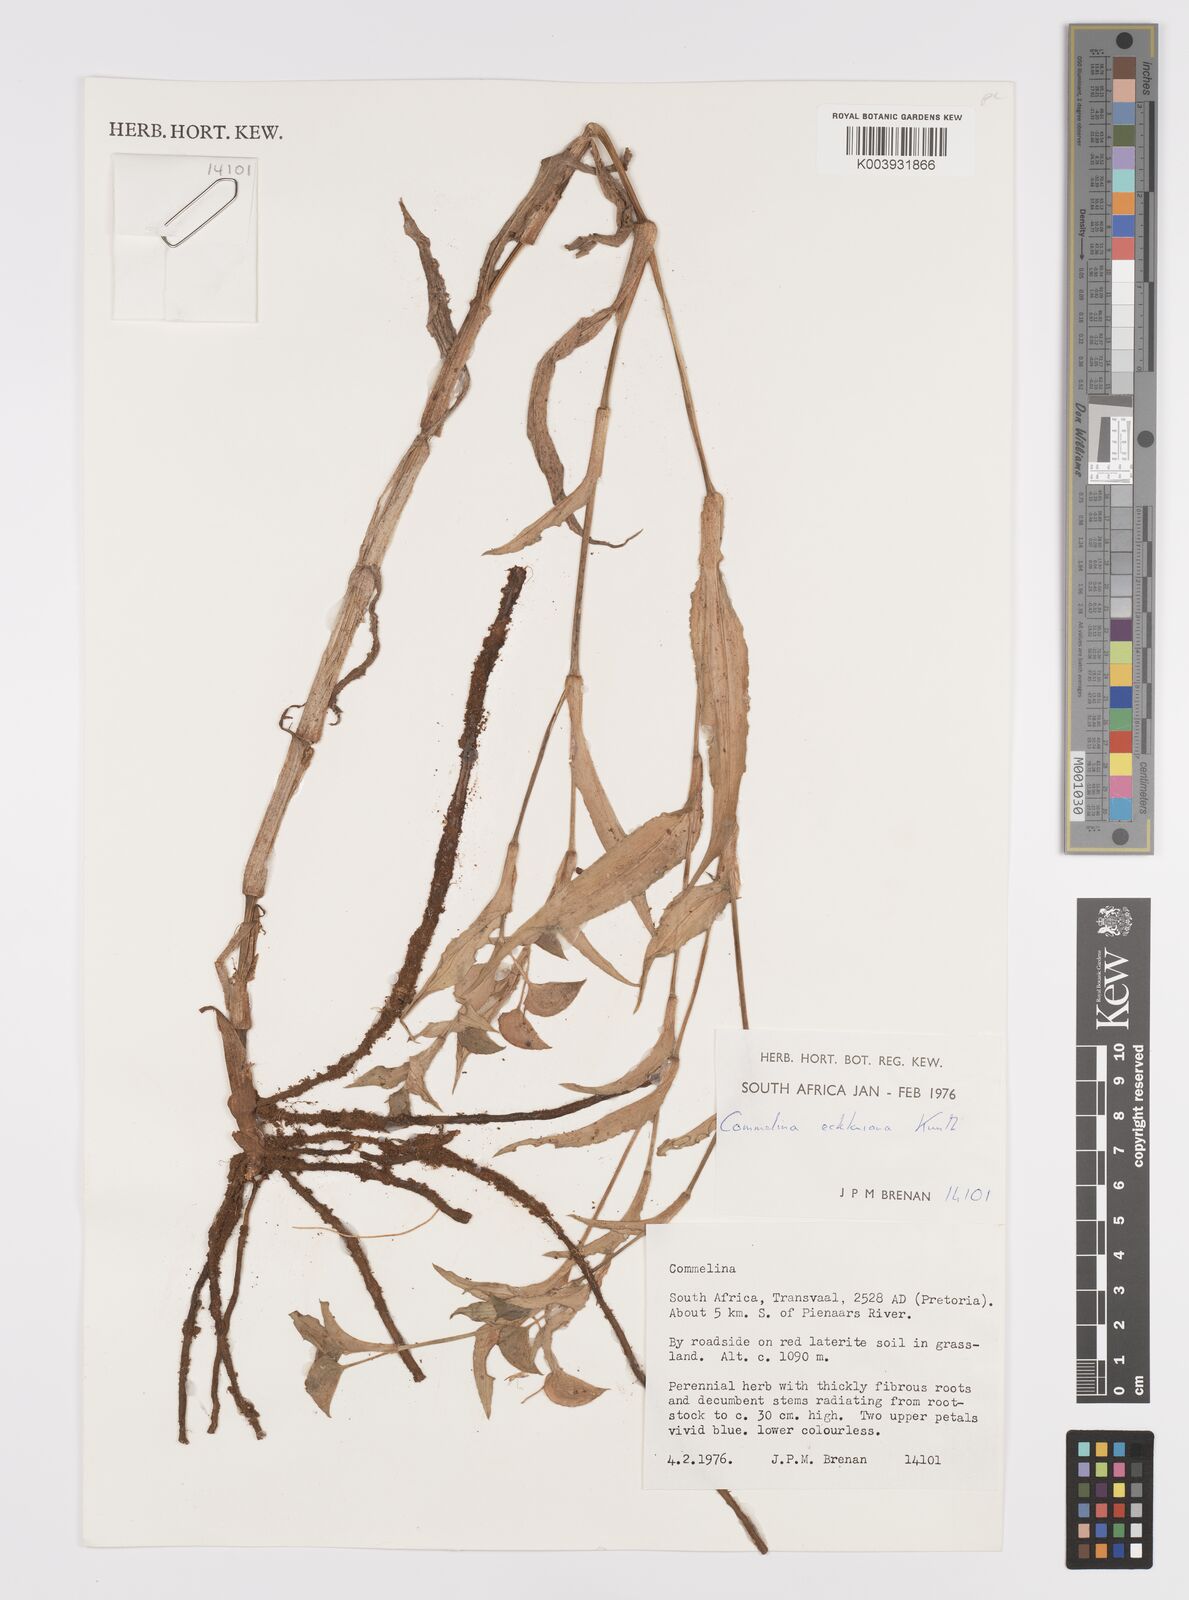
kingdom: Plantae
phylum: Tracheophyta
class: Liliopsida
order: Commelinales
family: Commelinaceae
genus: Commelina
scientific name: Commelina eckloniana
